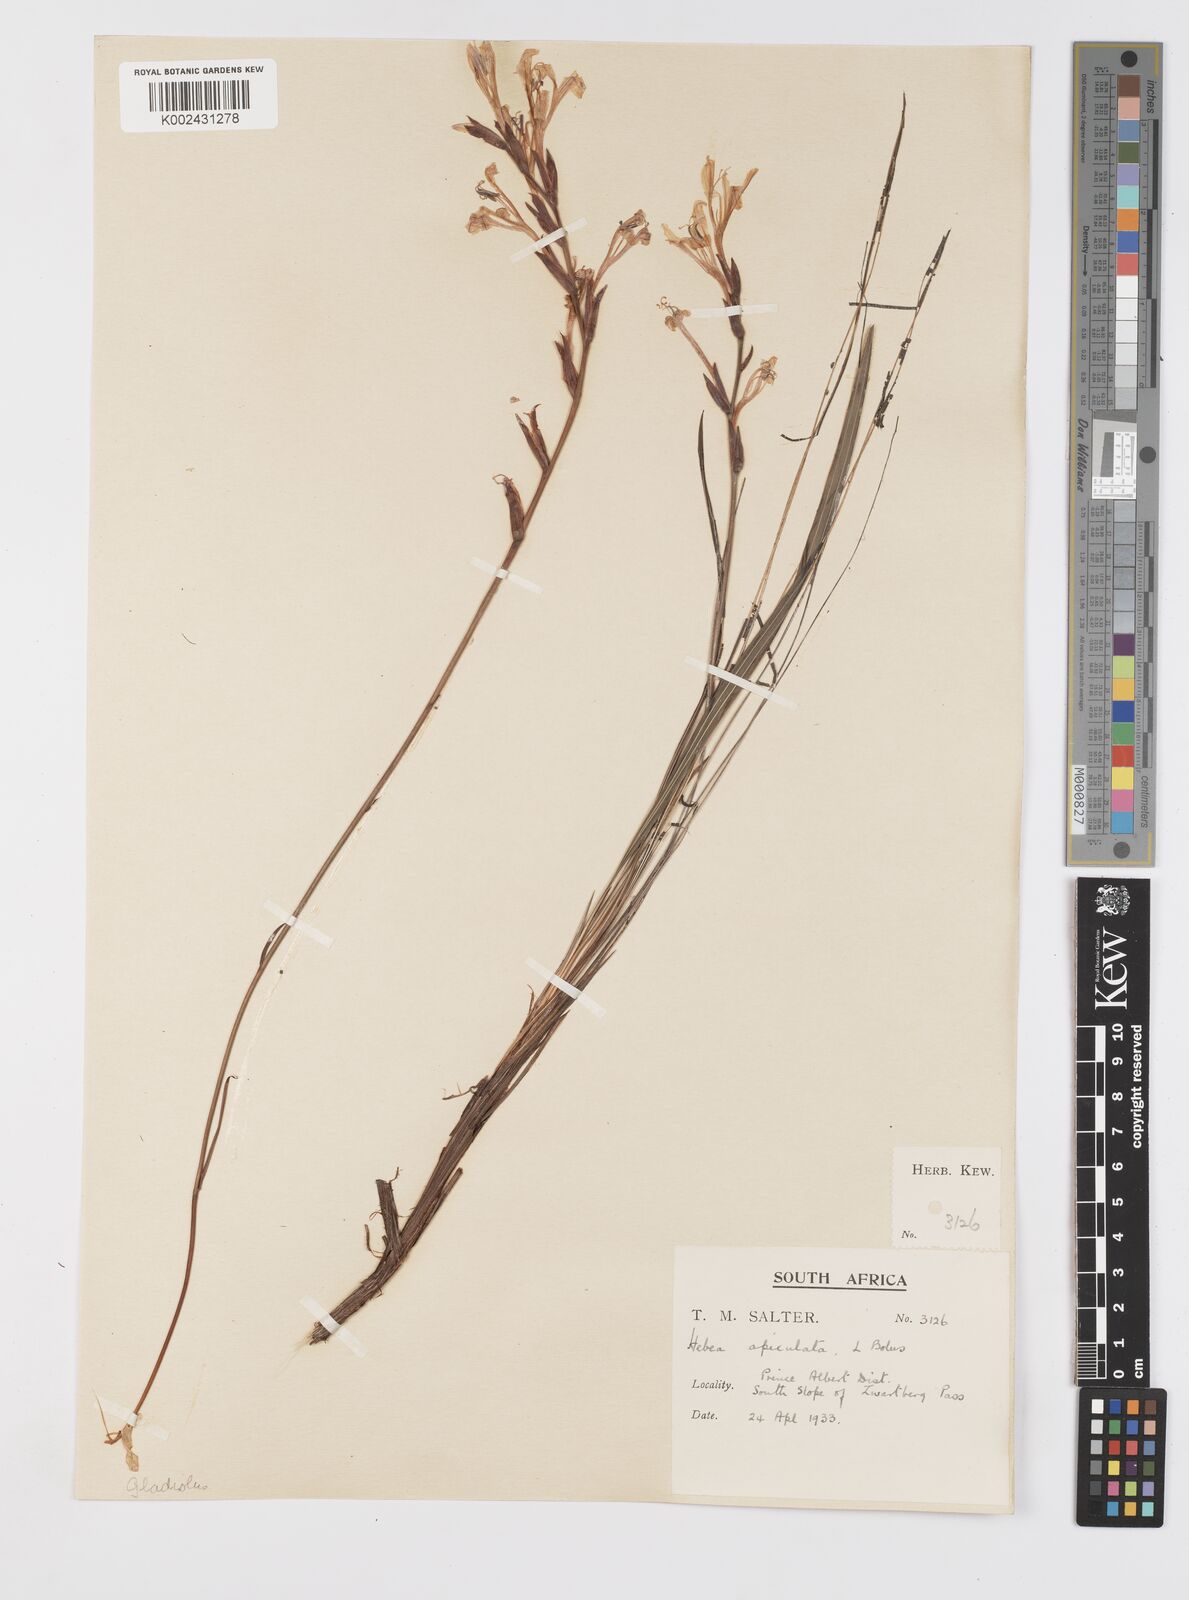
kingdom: Plantae
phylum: Tracheophyta
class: Liliopsida
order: Asparagales
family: Iridaceae
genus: Tritoniopsis
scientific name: Tritoniopsis revoluta
